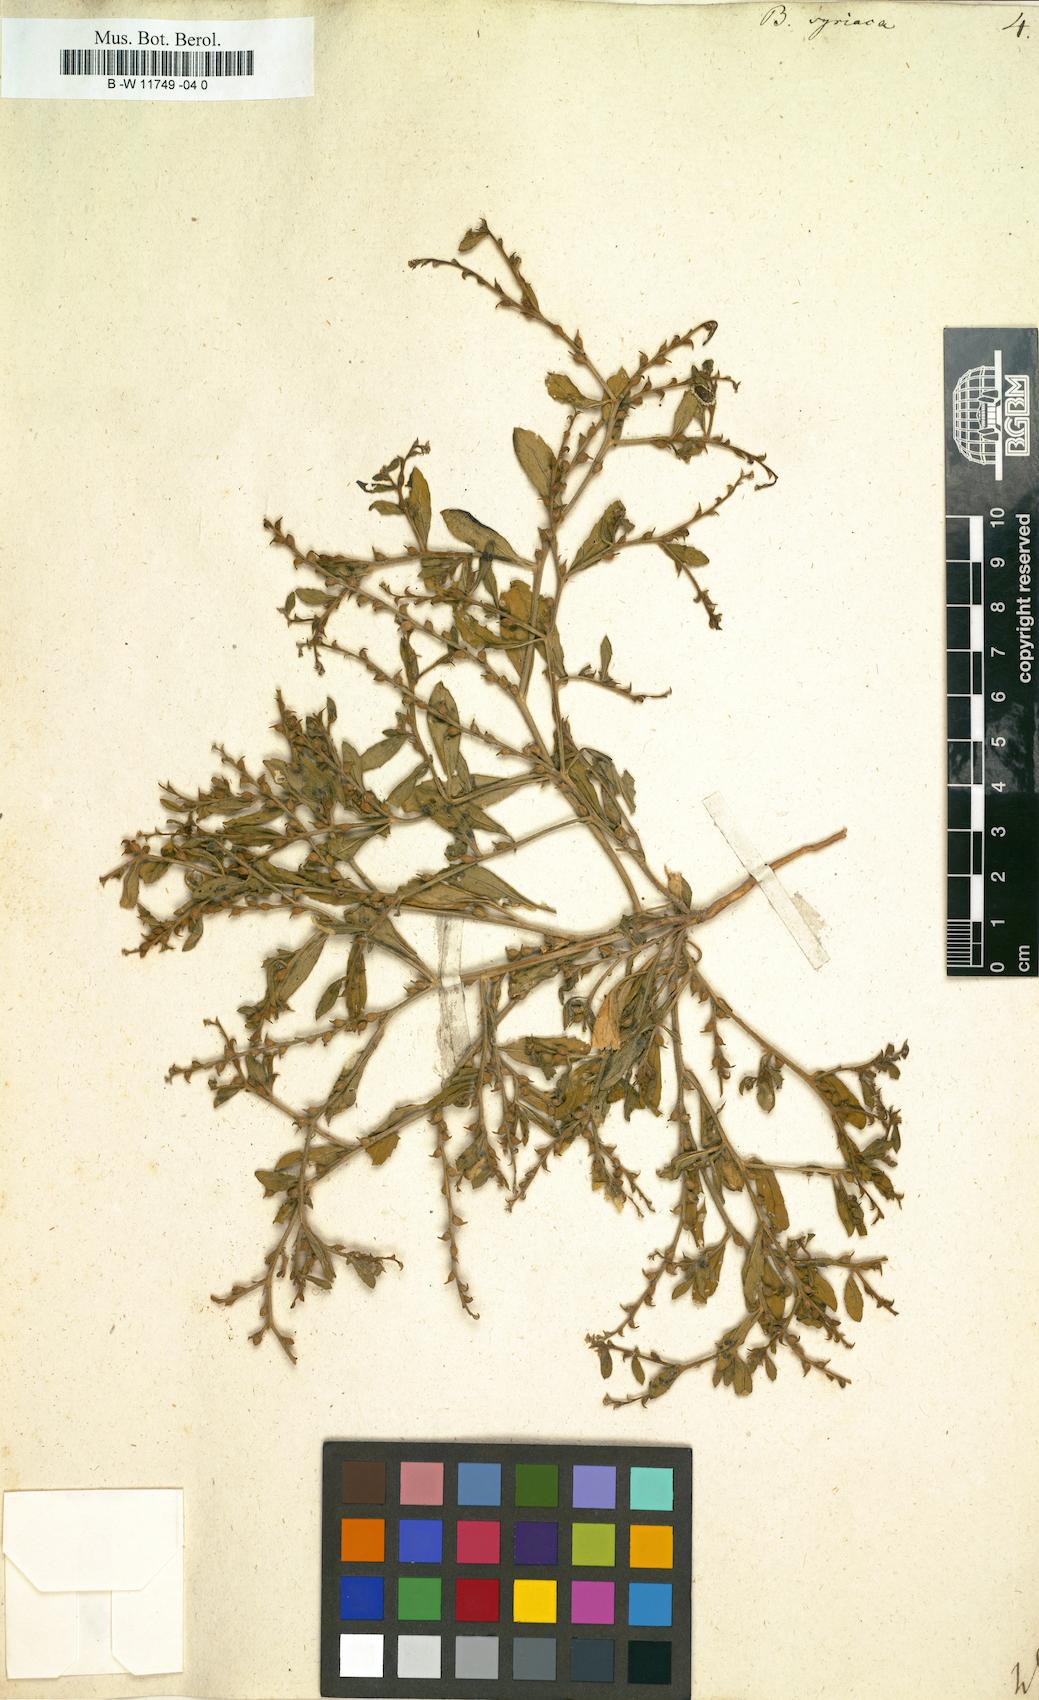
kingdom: Plantae
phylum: Tracheophyta
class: Magnoliopsida
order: Brassicales
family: Brassicaceae
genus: Euclidium
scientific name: Euclidium syriacum
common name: Syrian mustard
